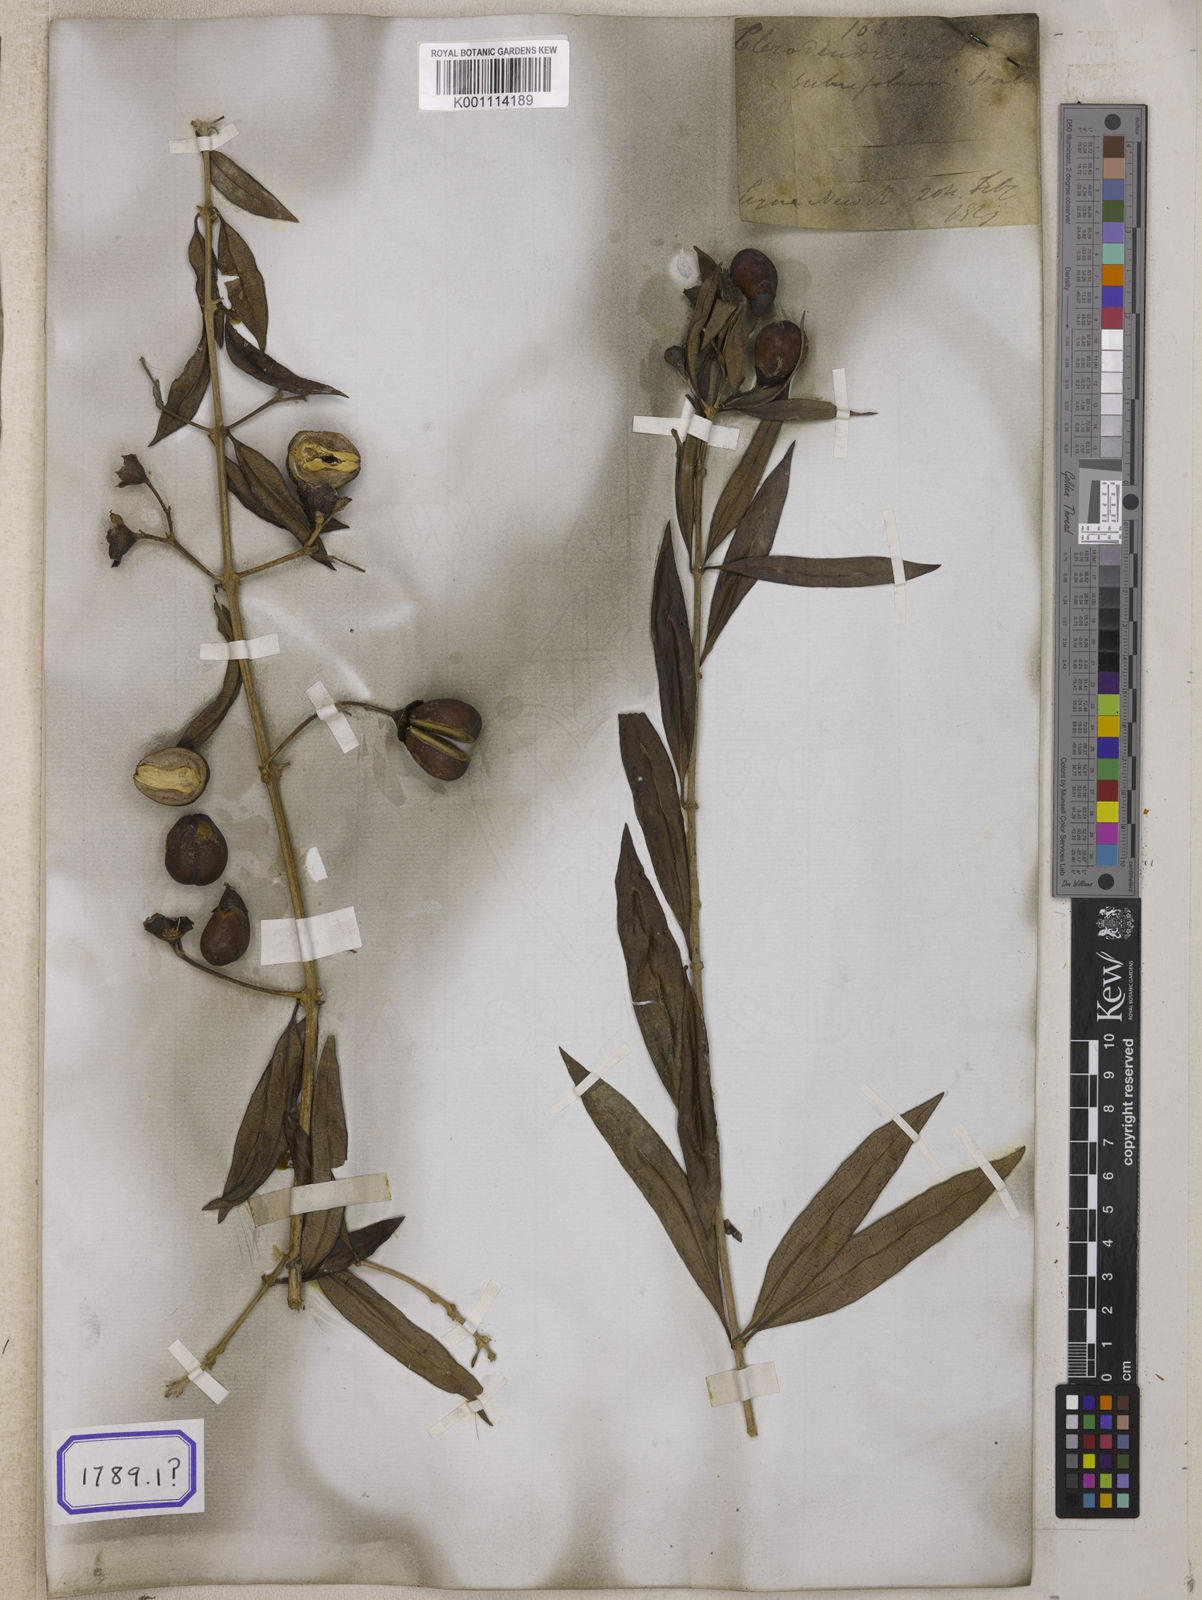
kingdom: Plantae
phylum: Tracheophyta
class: Magnoliopsida
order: Lamiales
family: Lamiaceae
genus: Clerodendrum
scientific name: Clerodendrum
